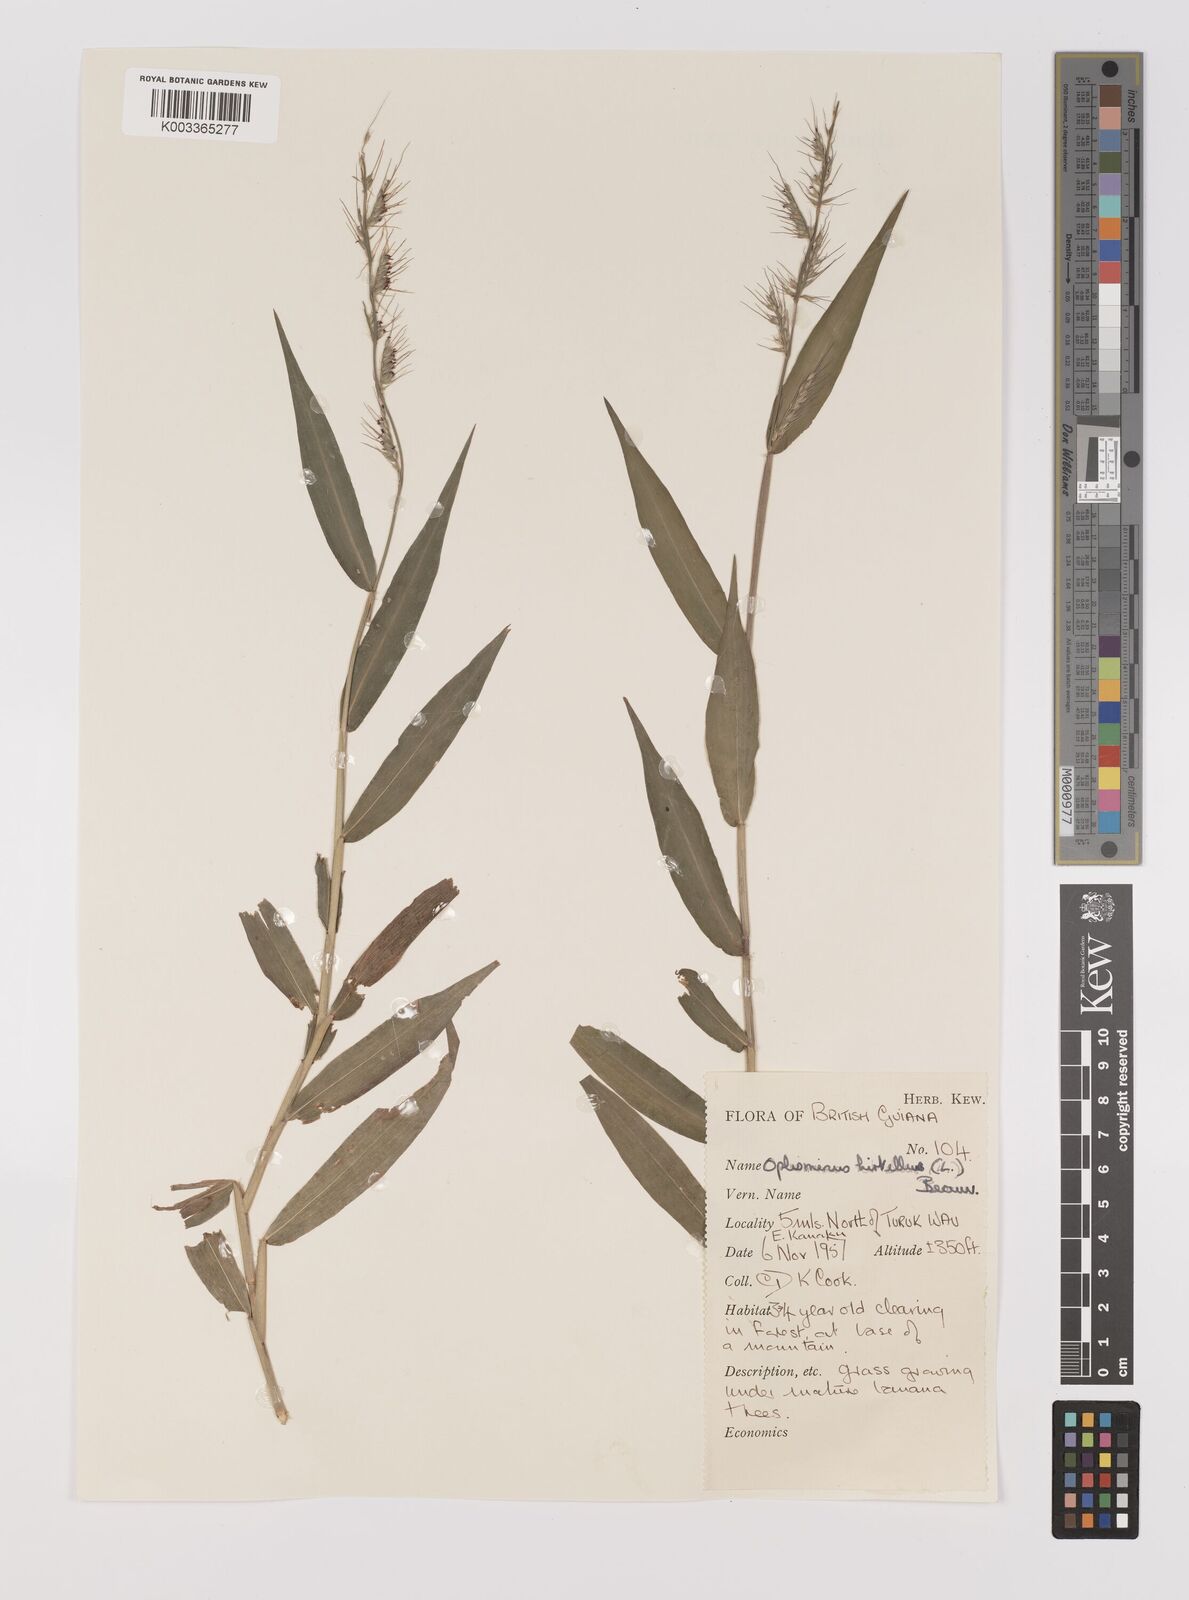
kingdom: Plantae
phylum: Tracheophyta
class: Liliopsida
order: Poales
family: Poaceae
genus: Oplismenus
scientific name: Oplismenus hirtellus
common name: Basketgrass
